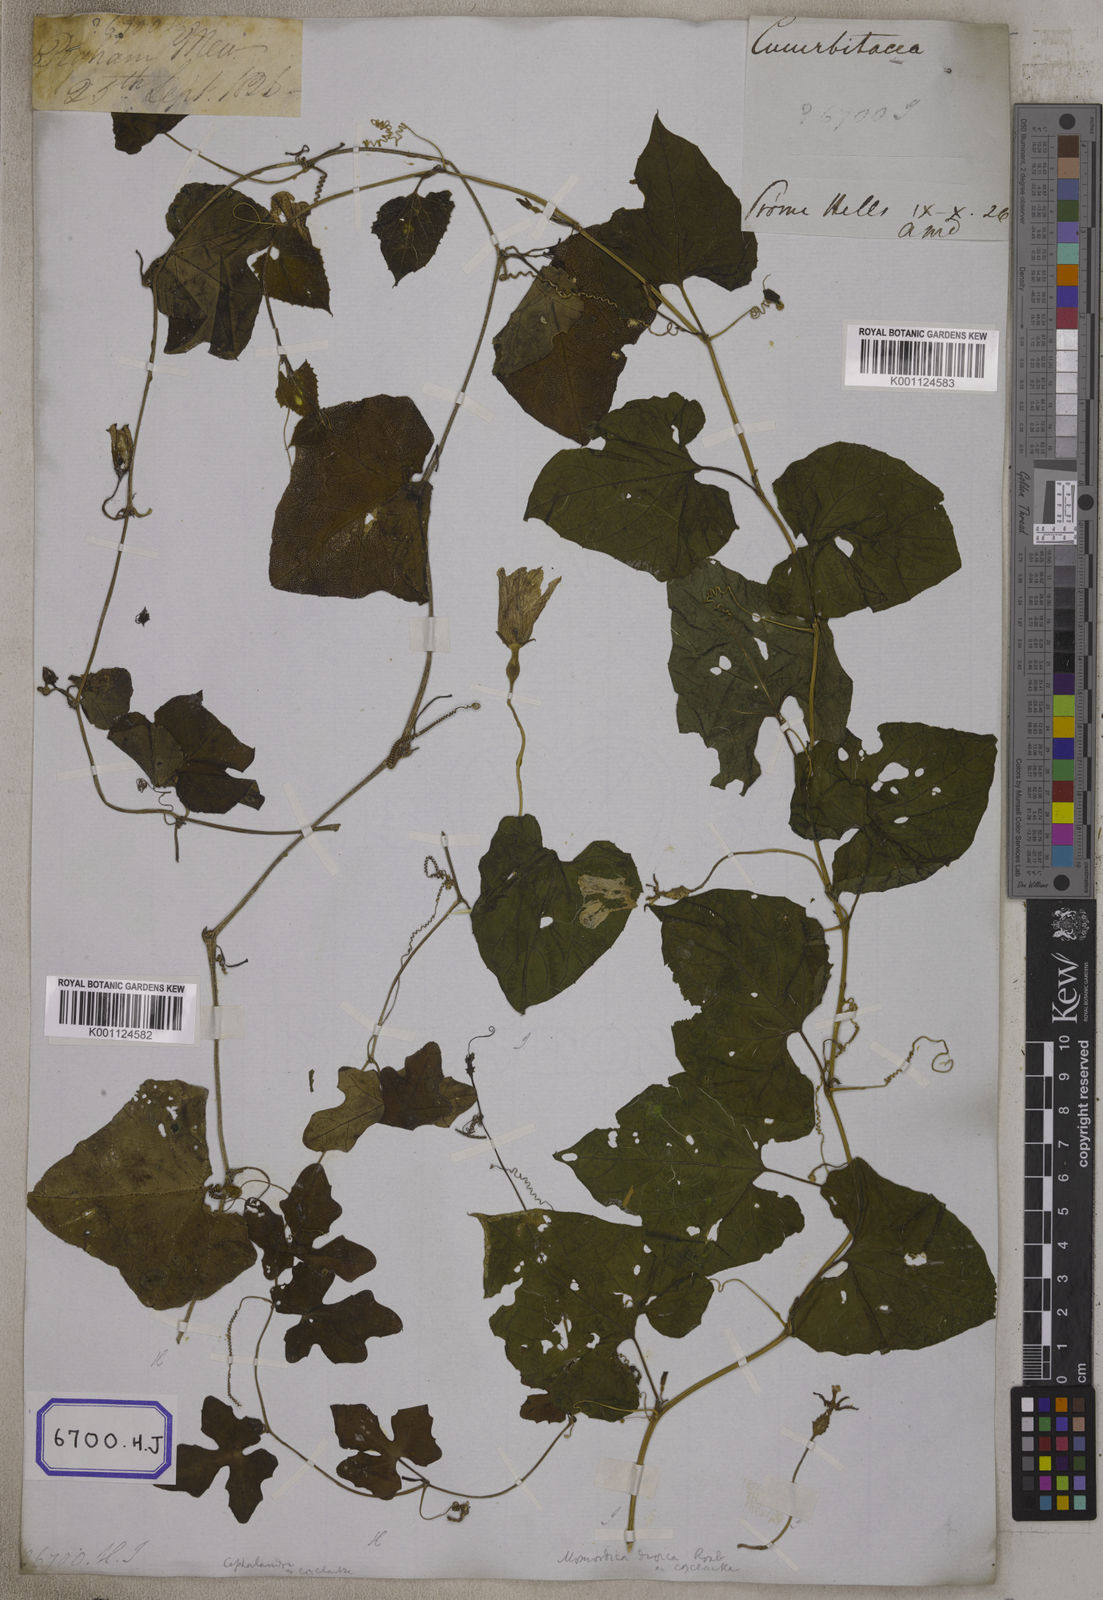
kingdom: Plantae
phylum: Tracheophyta
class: Magnoliopsida
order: Cucurbitales
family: Cucurbitaceae
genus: Bryonia
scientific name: Bryonia
